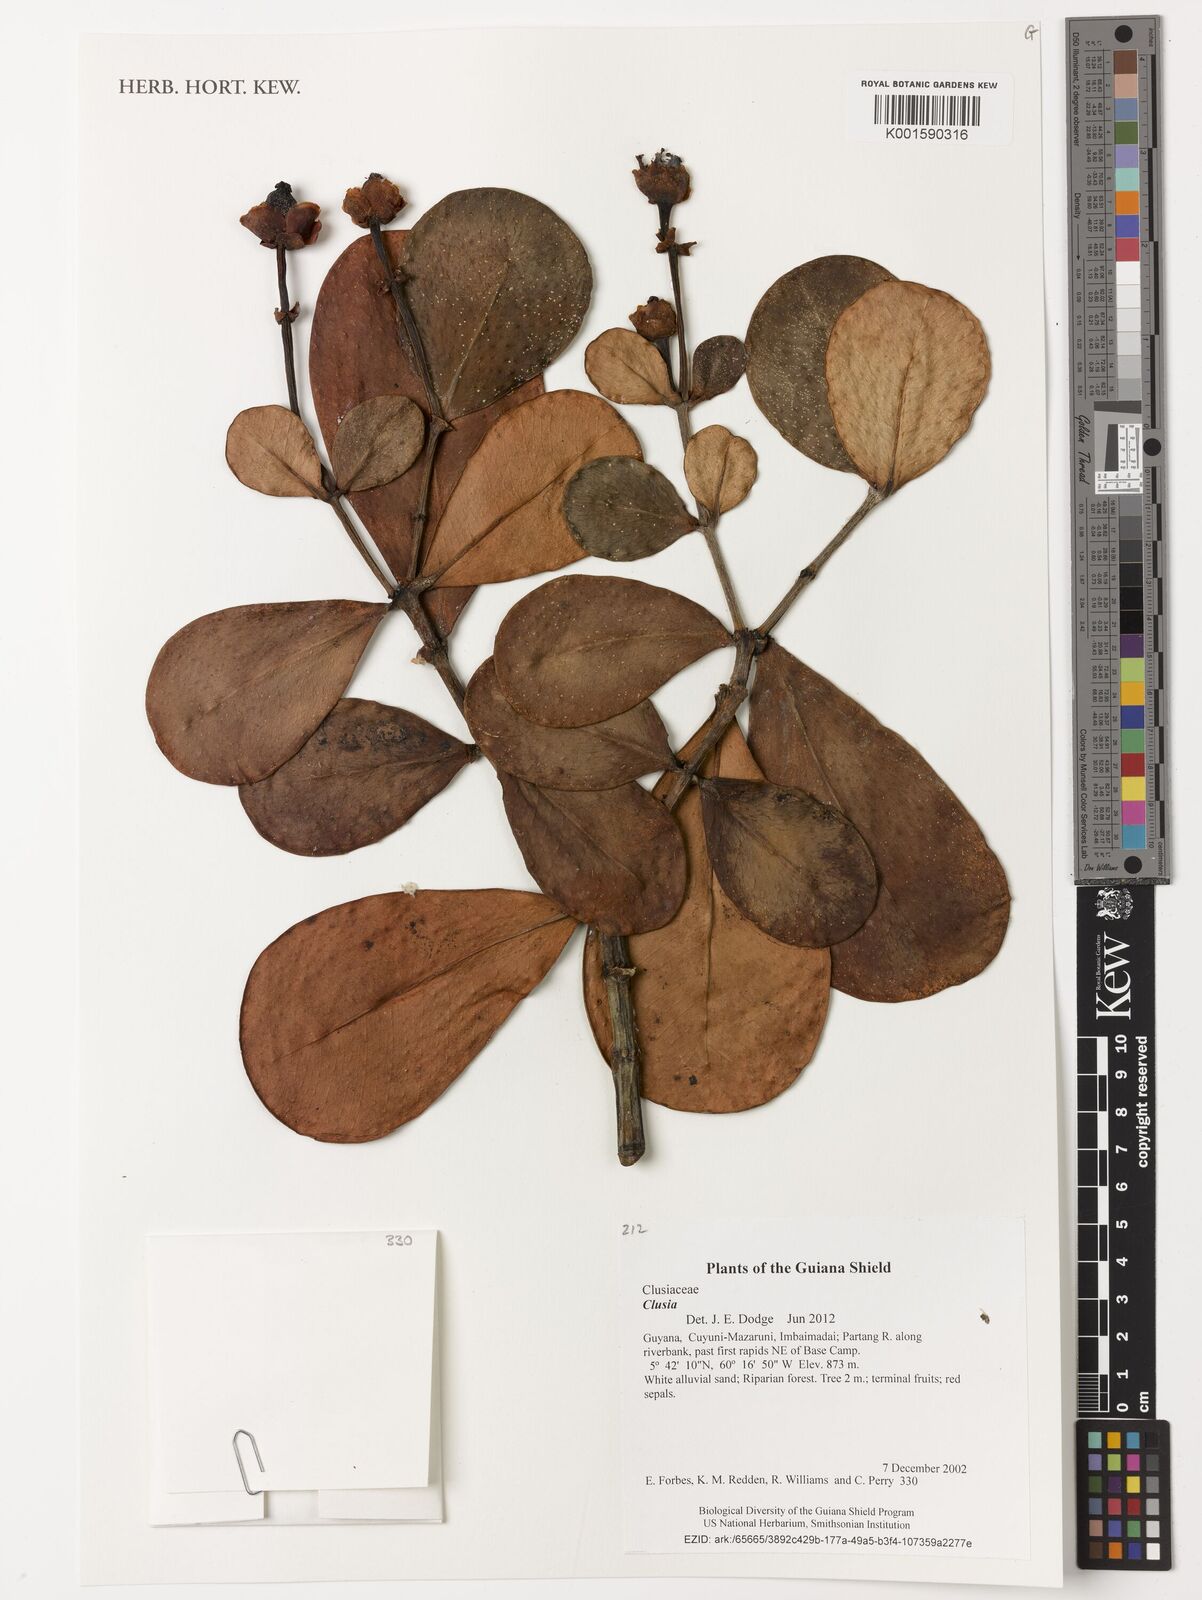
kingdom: Plantae
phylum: Tracheophyta
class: Magnoliopsida
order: Malpighiales
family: Clusiaceae
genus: Clusia
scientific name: Clusia
